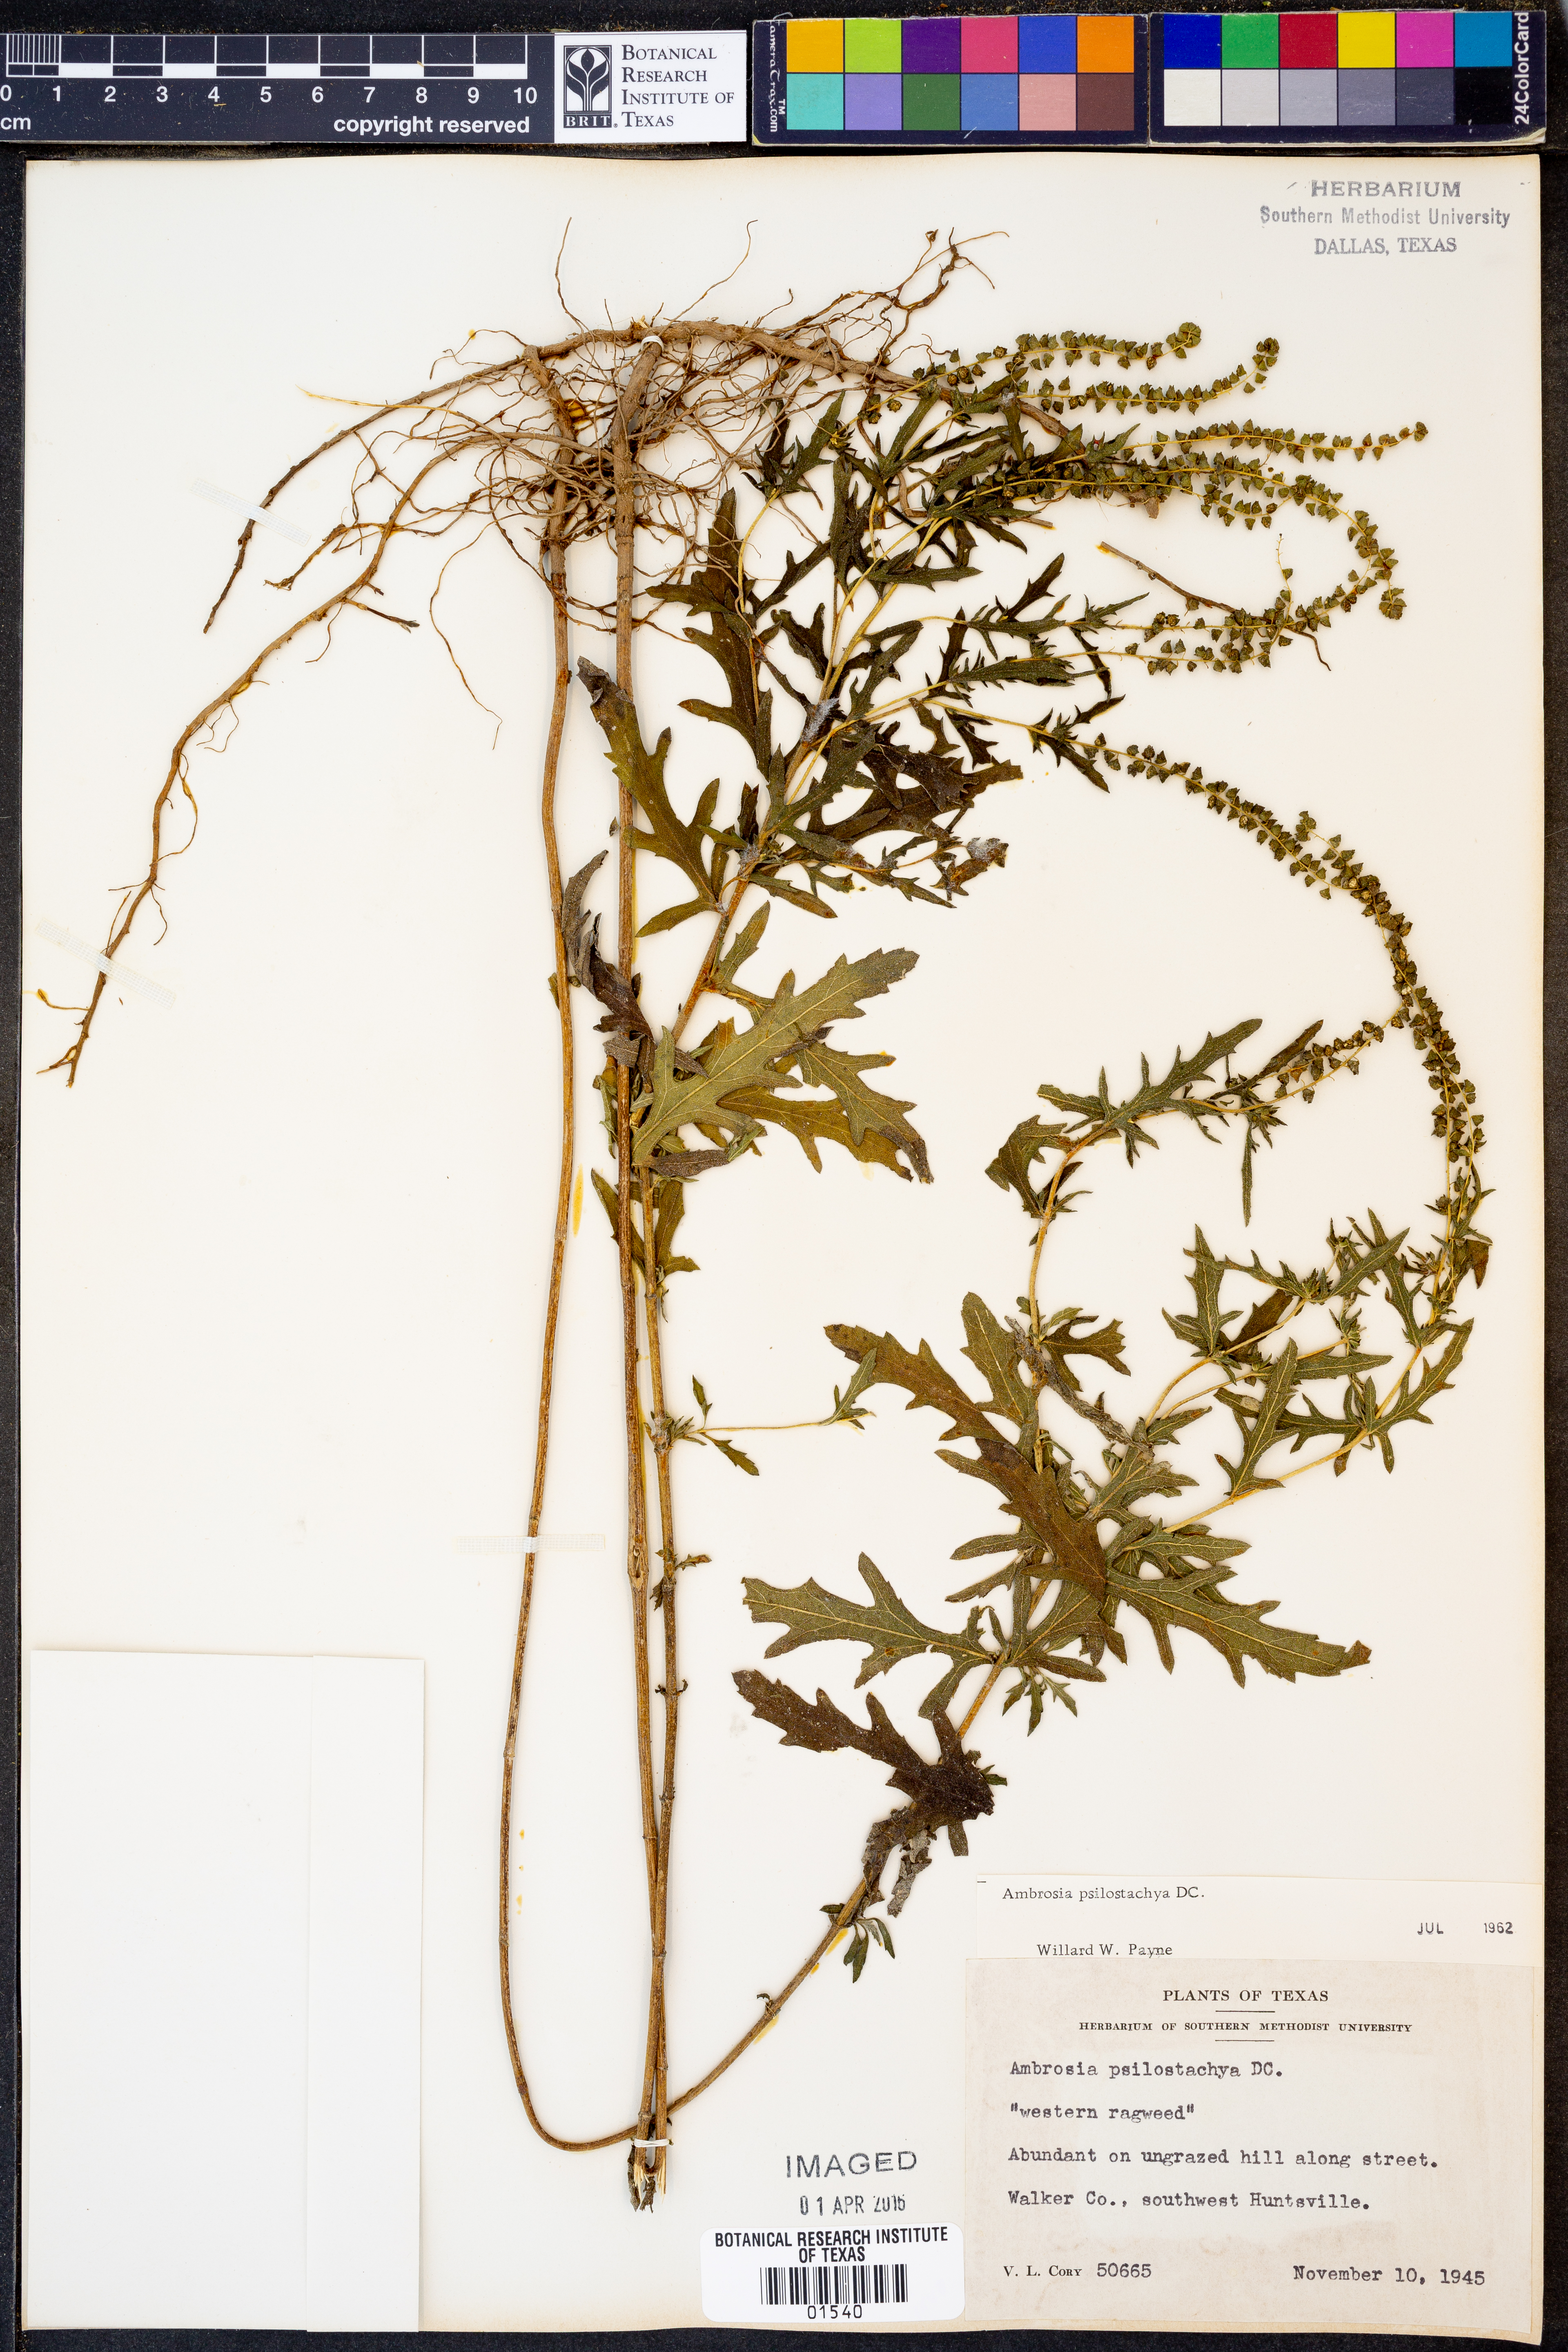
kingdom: Plantae
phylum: Tracheophyta
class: Magnoliopsida
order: Asterales
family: Asteraceae
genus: Ambrosia
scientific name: Ambrosia psilostachya
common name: Perennial ragweed
